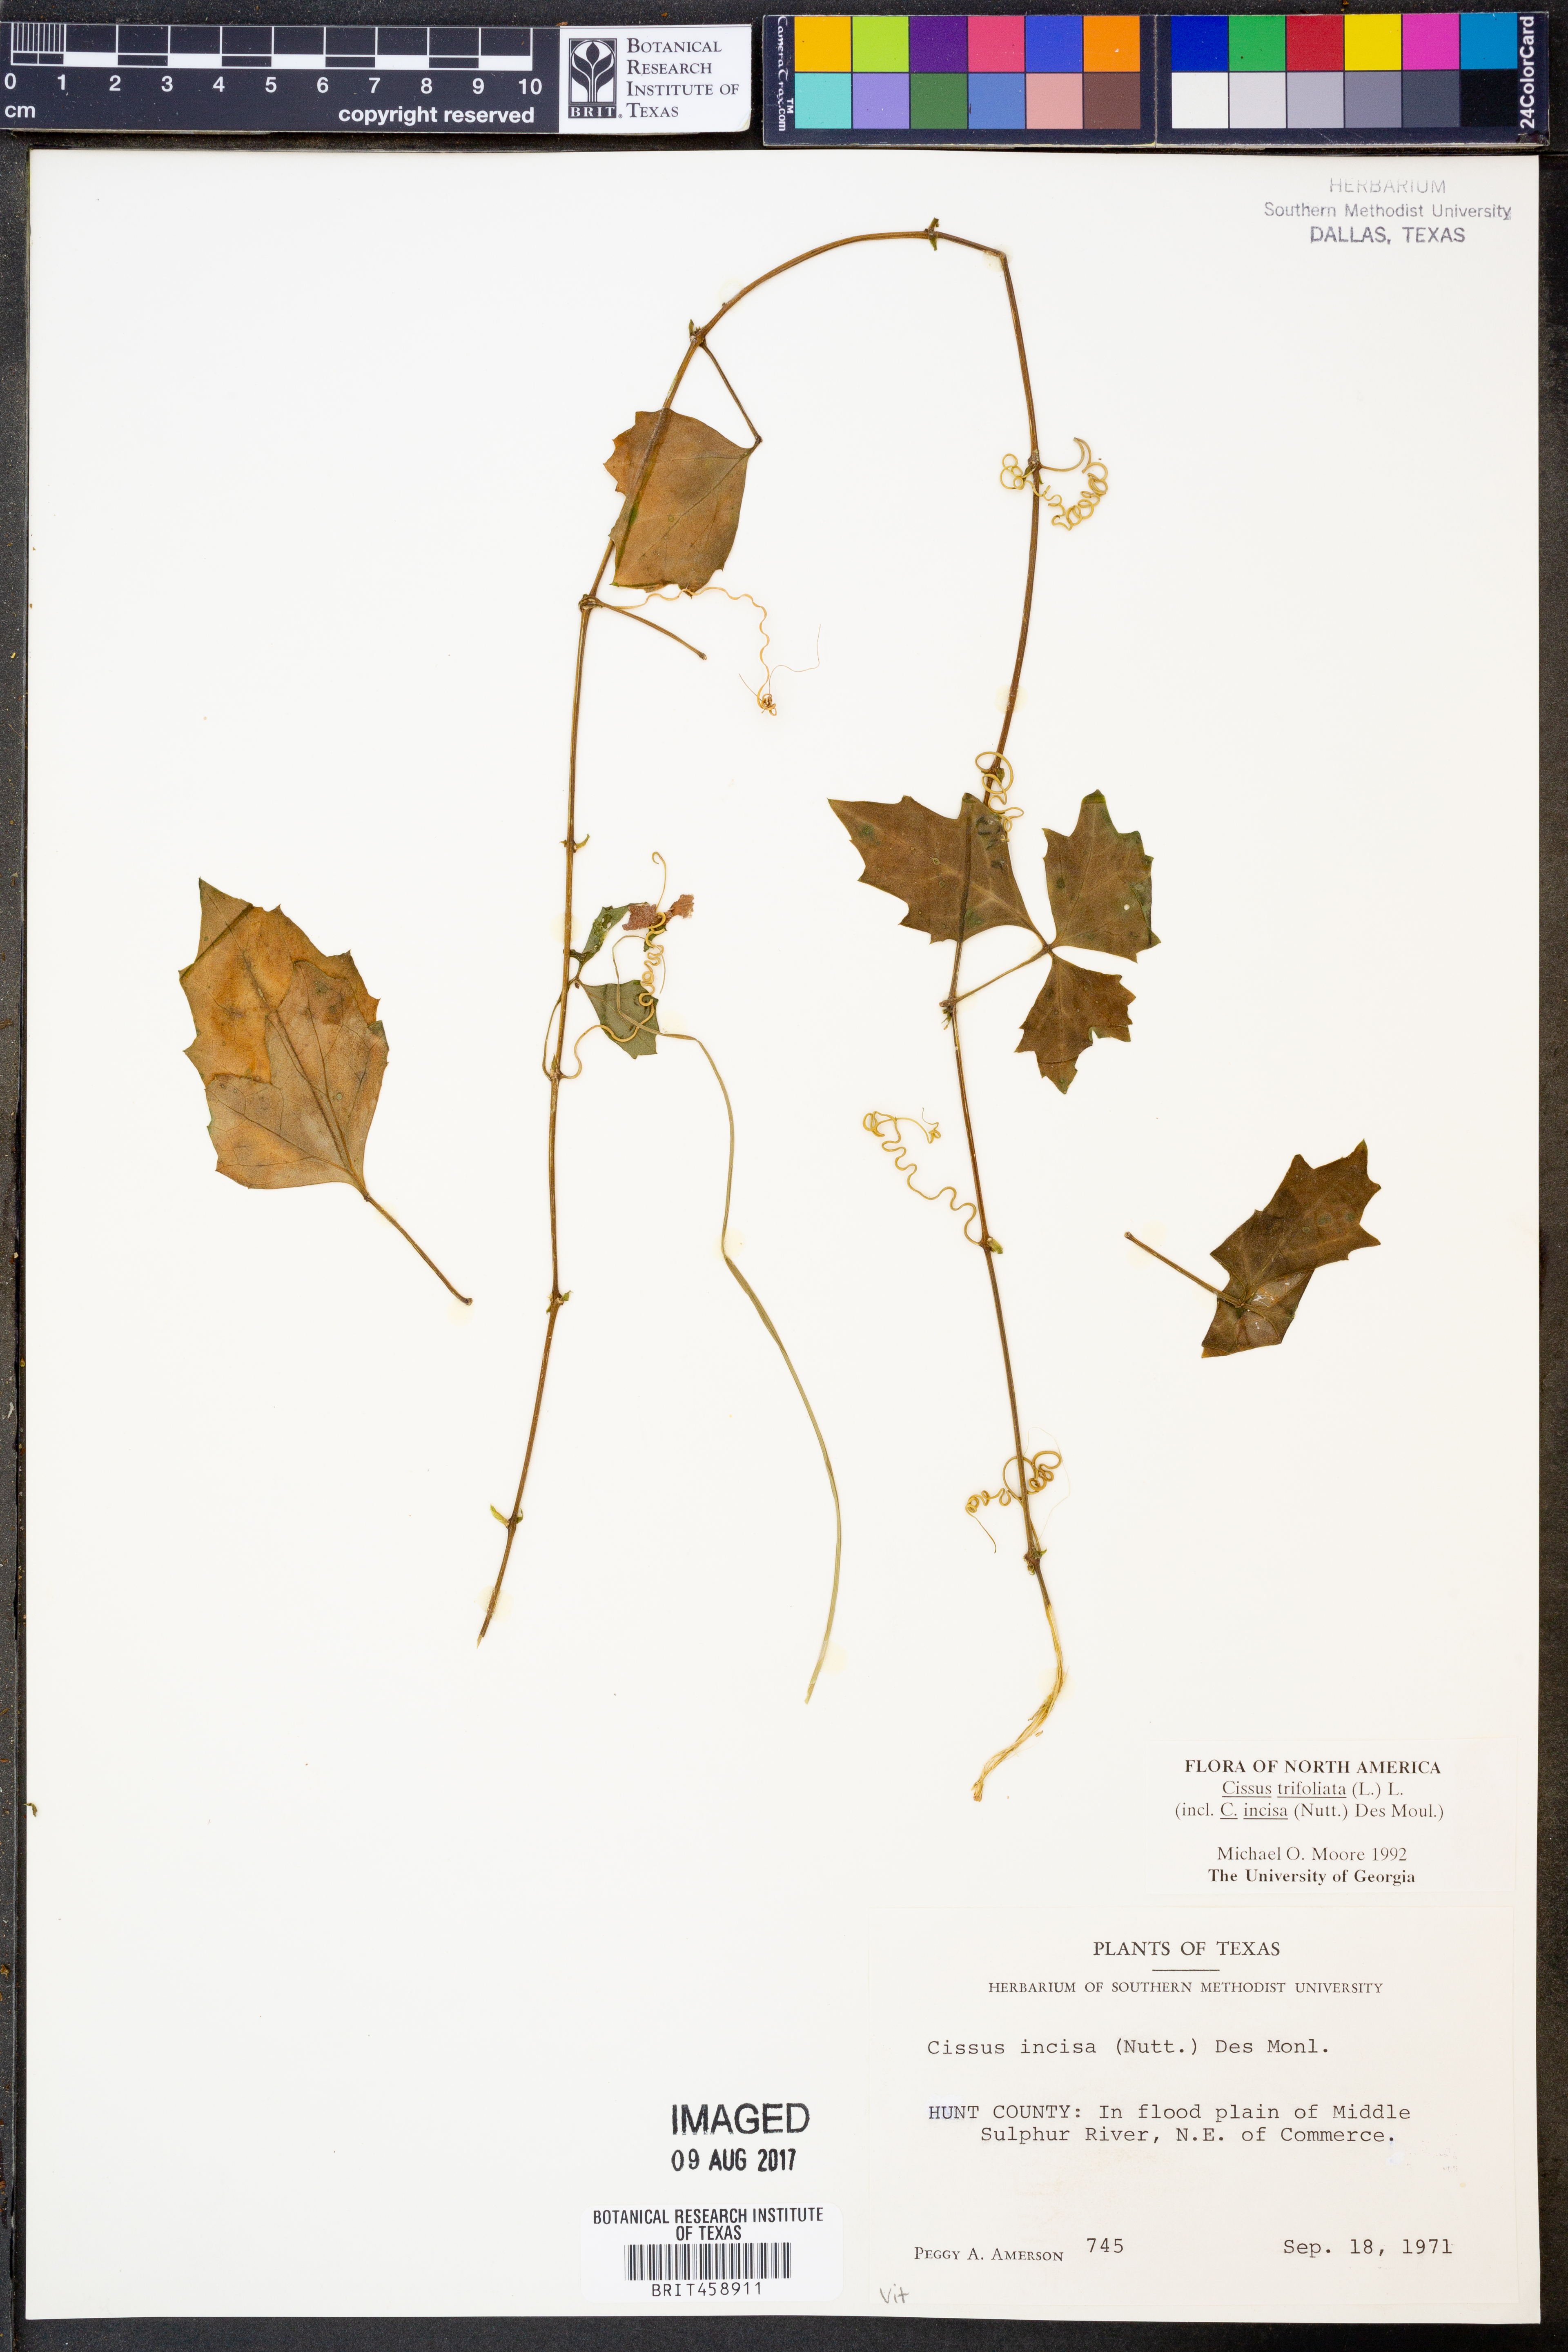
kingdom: Plantae
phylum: Tracheophyta
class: Magnoliopsida
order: Vitales
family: Vitaceae
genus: Cissus
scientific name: Cissus trifoliata
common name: Vine-sorrel
